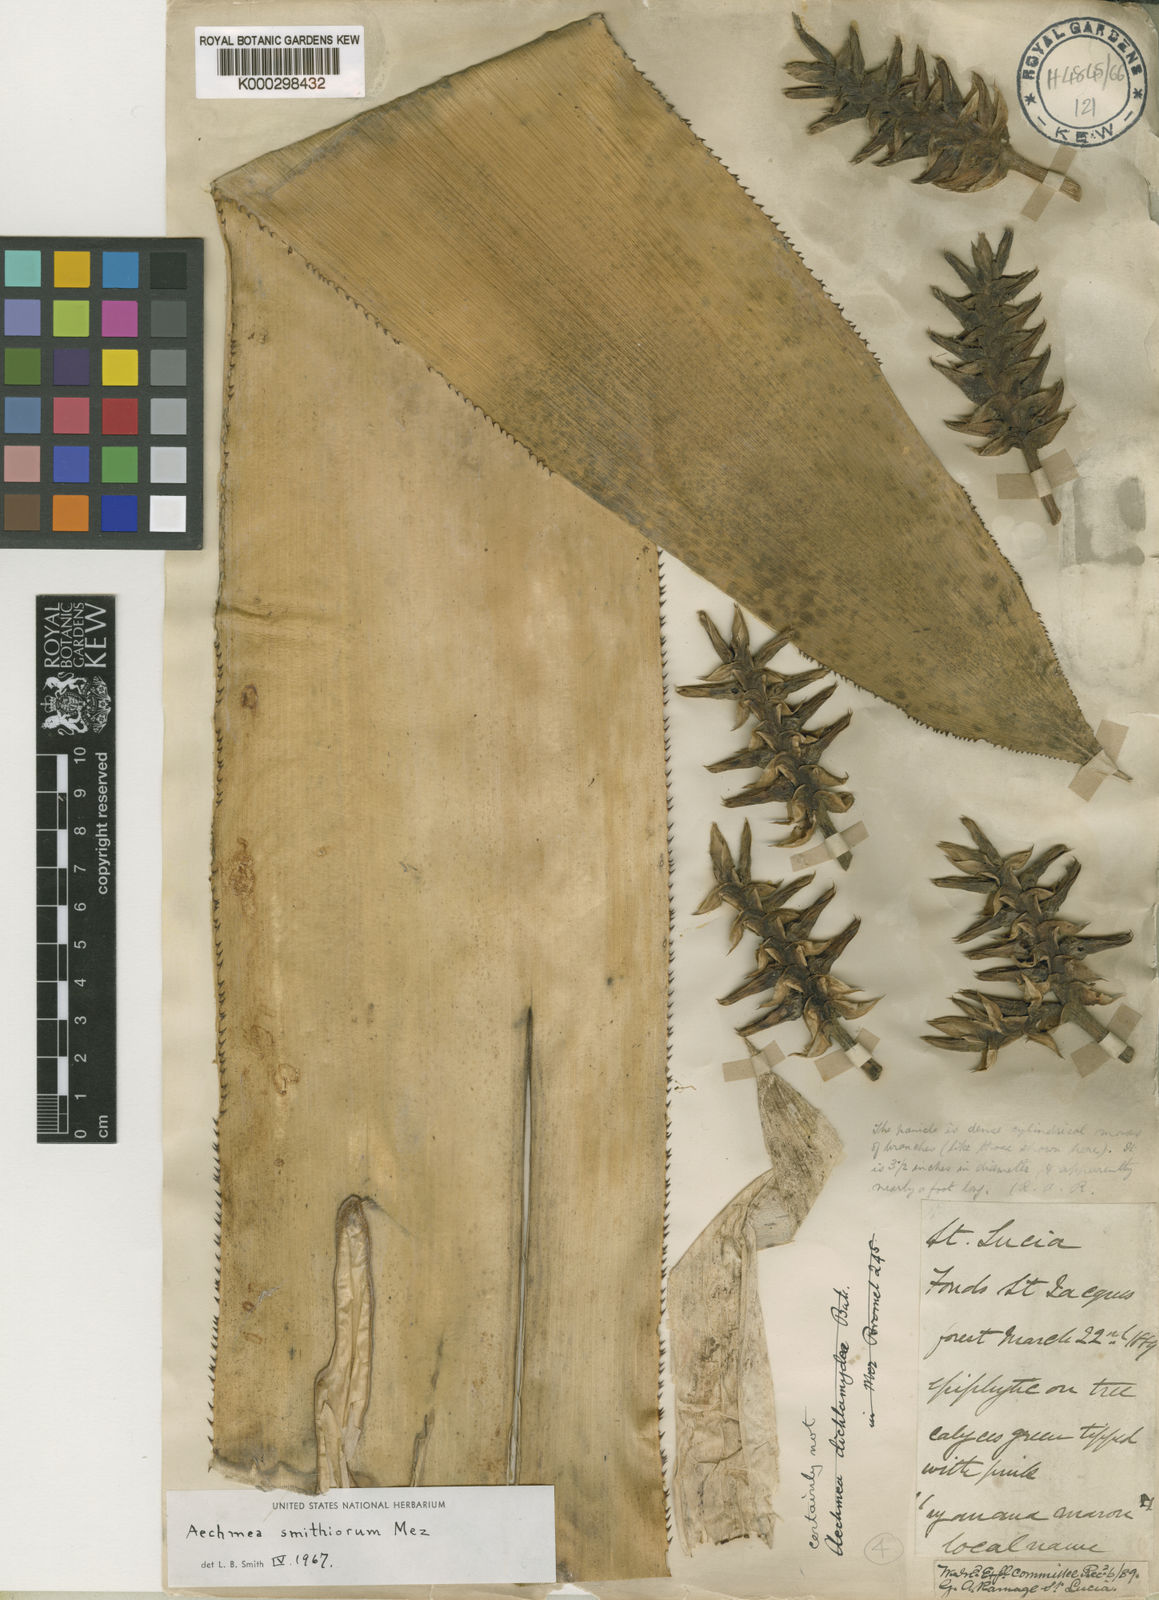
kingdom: Plantae
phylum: Tracheophyta
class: Liliopsida
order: Poales
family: Bromeliaceae
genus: Aechmea
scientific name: Aechmea smithiorum
